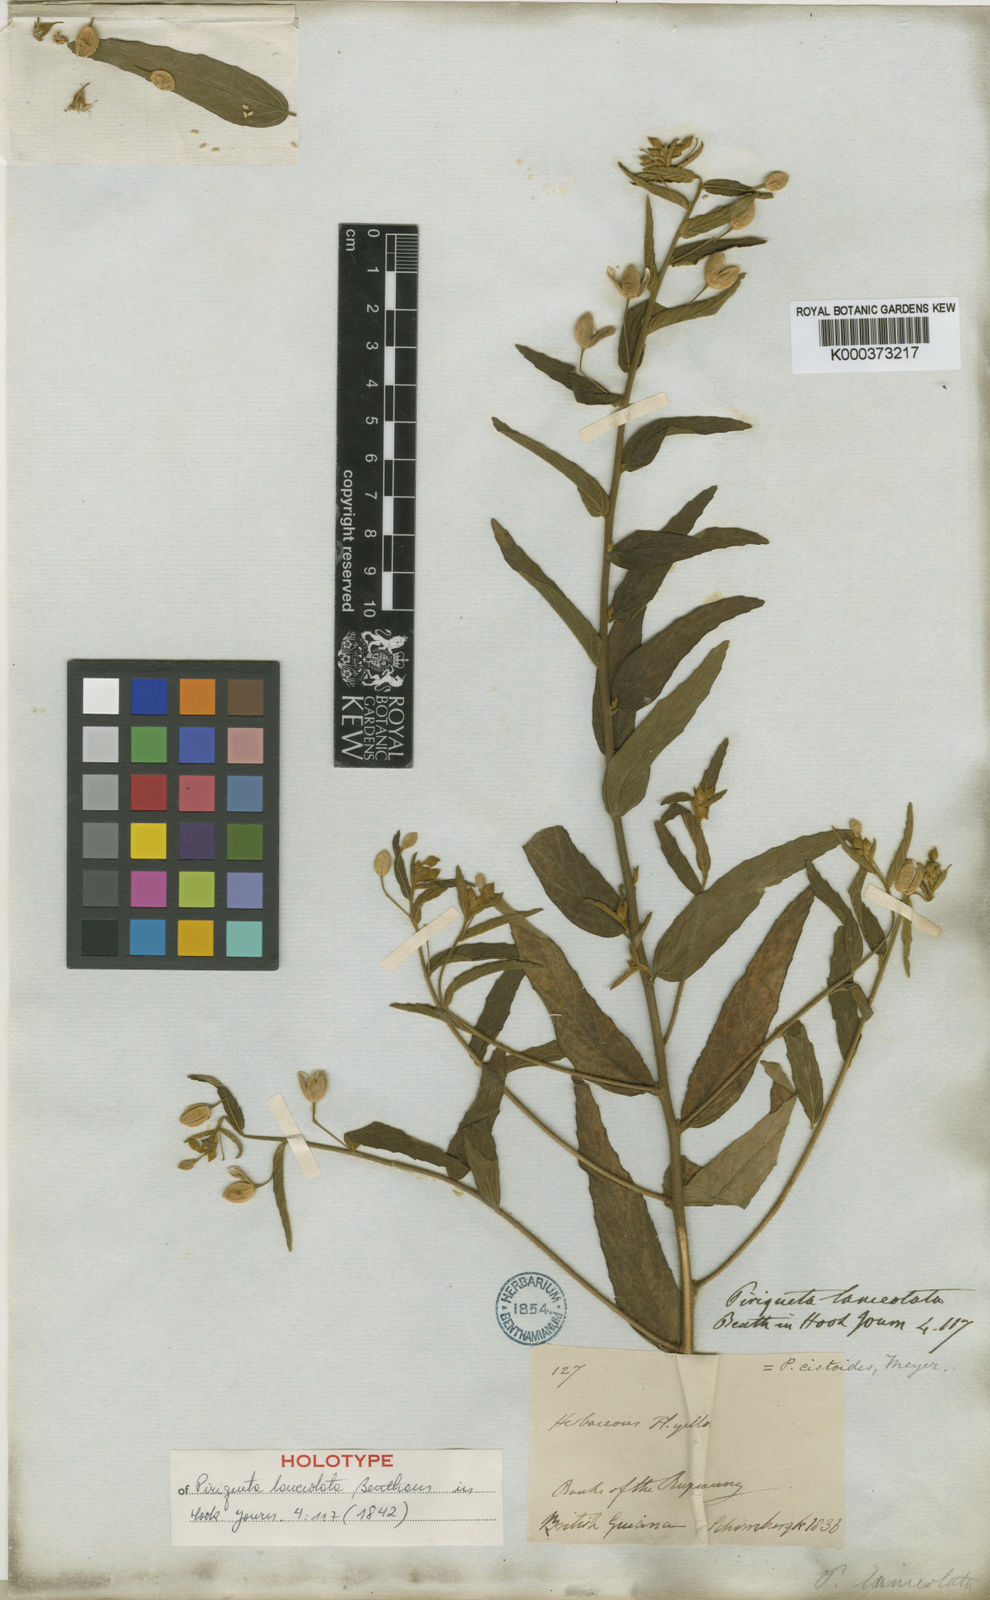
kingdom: Plantae
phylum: Tracheophyta
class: Magnoliopsida
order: Malpighiales
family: Turneraceae
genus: Piriqueta
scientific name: Piriqueta cistoides
